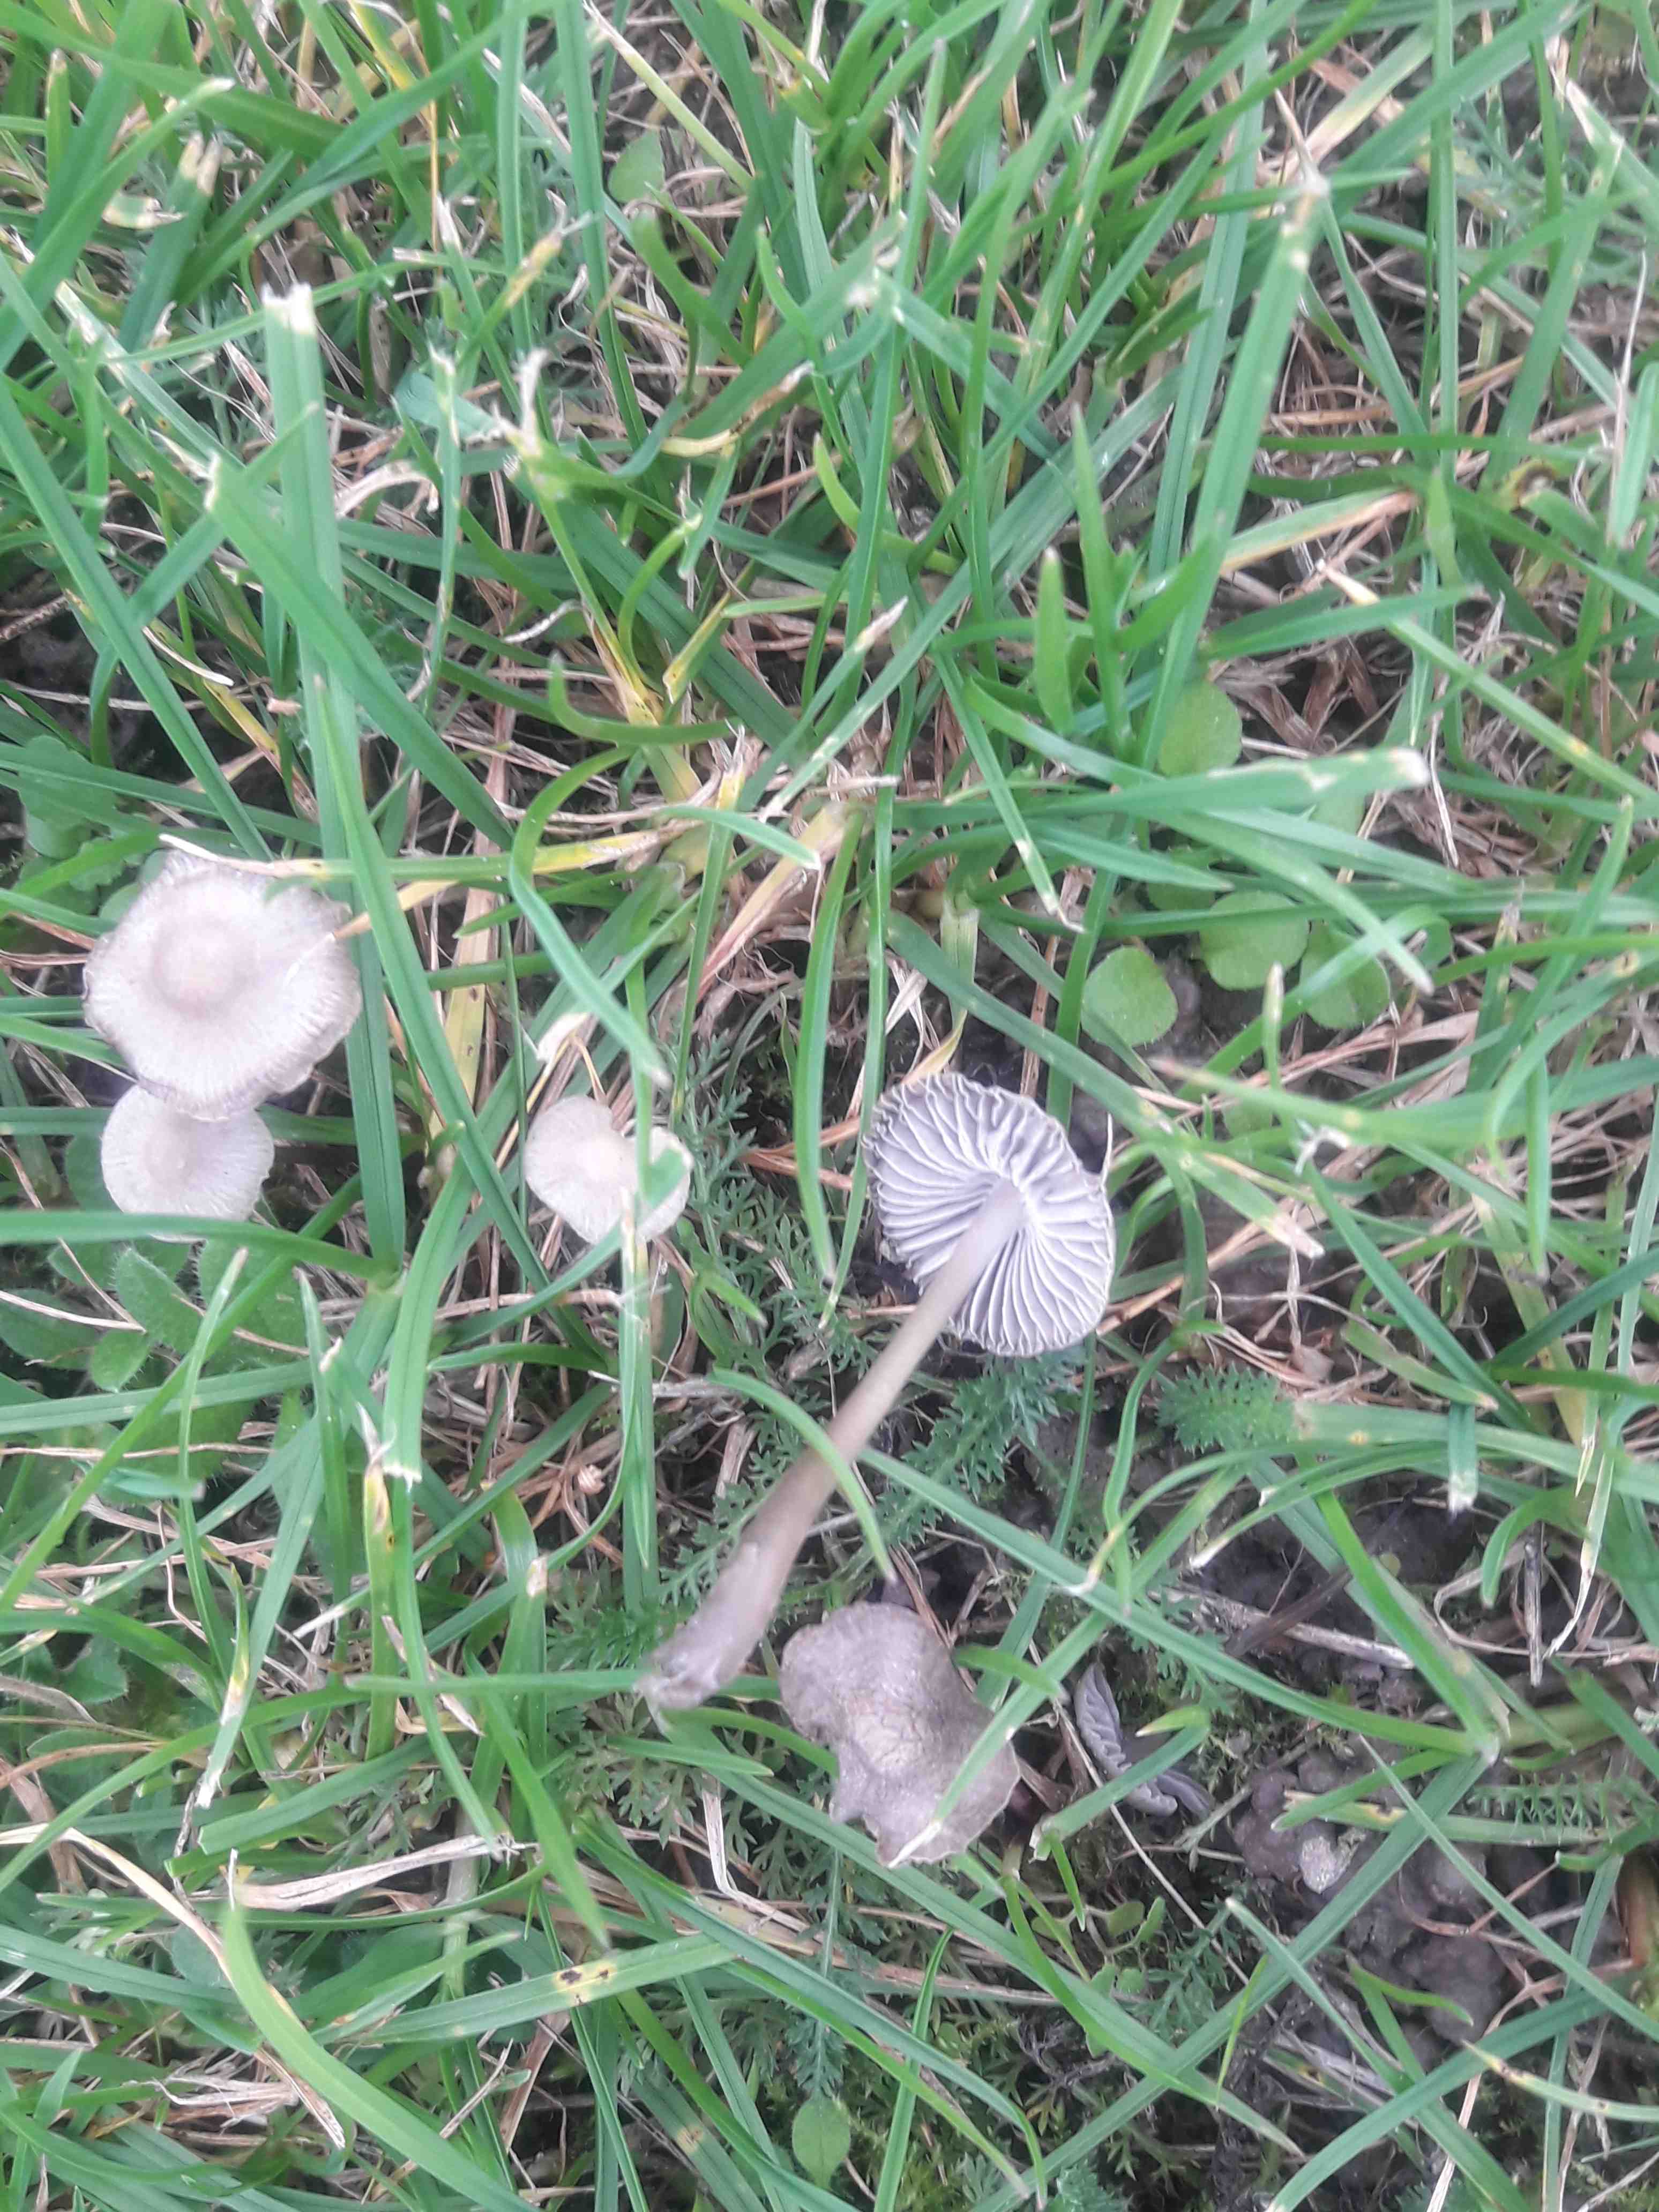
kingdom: Fungi
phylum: Basidiomycota
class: Agaricomycetes
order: Agaricales
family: Mycenaceae
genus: Mycena
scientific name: Mycena aetites
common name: plæne-huesvamp
